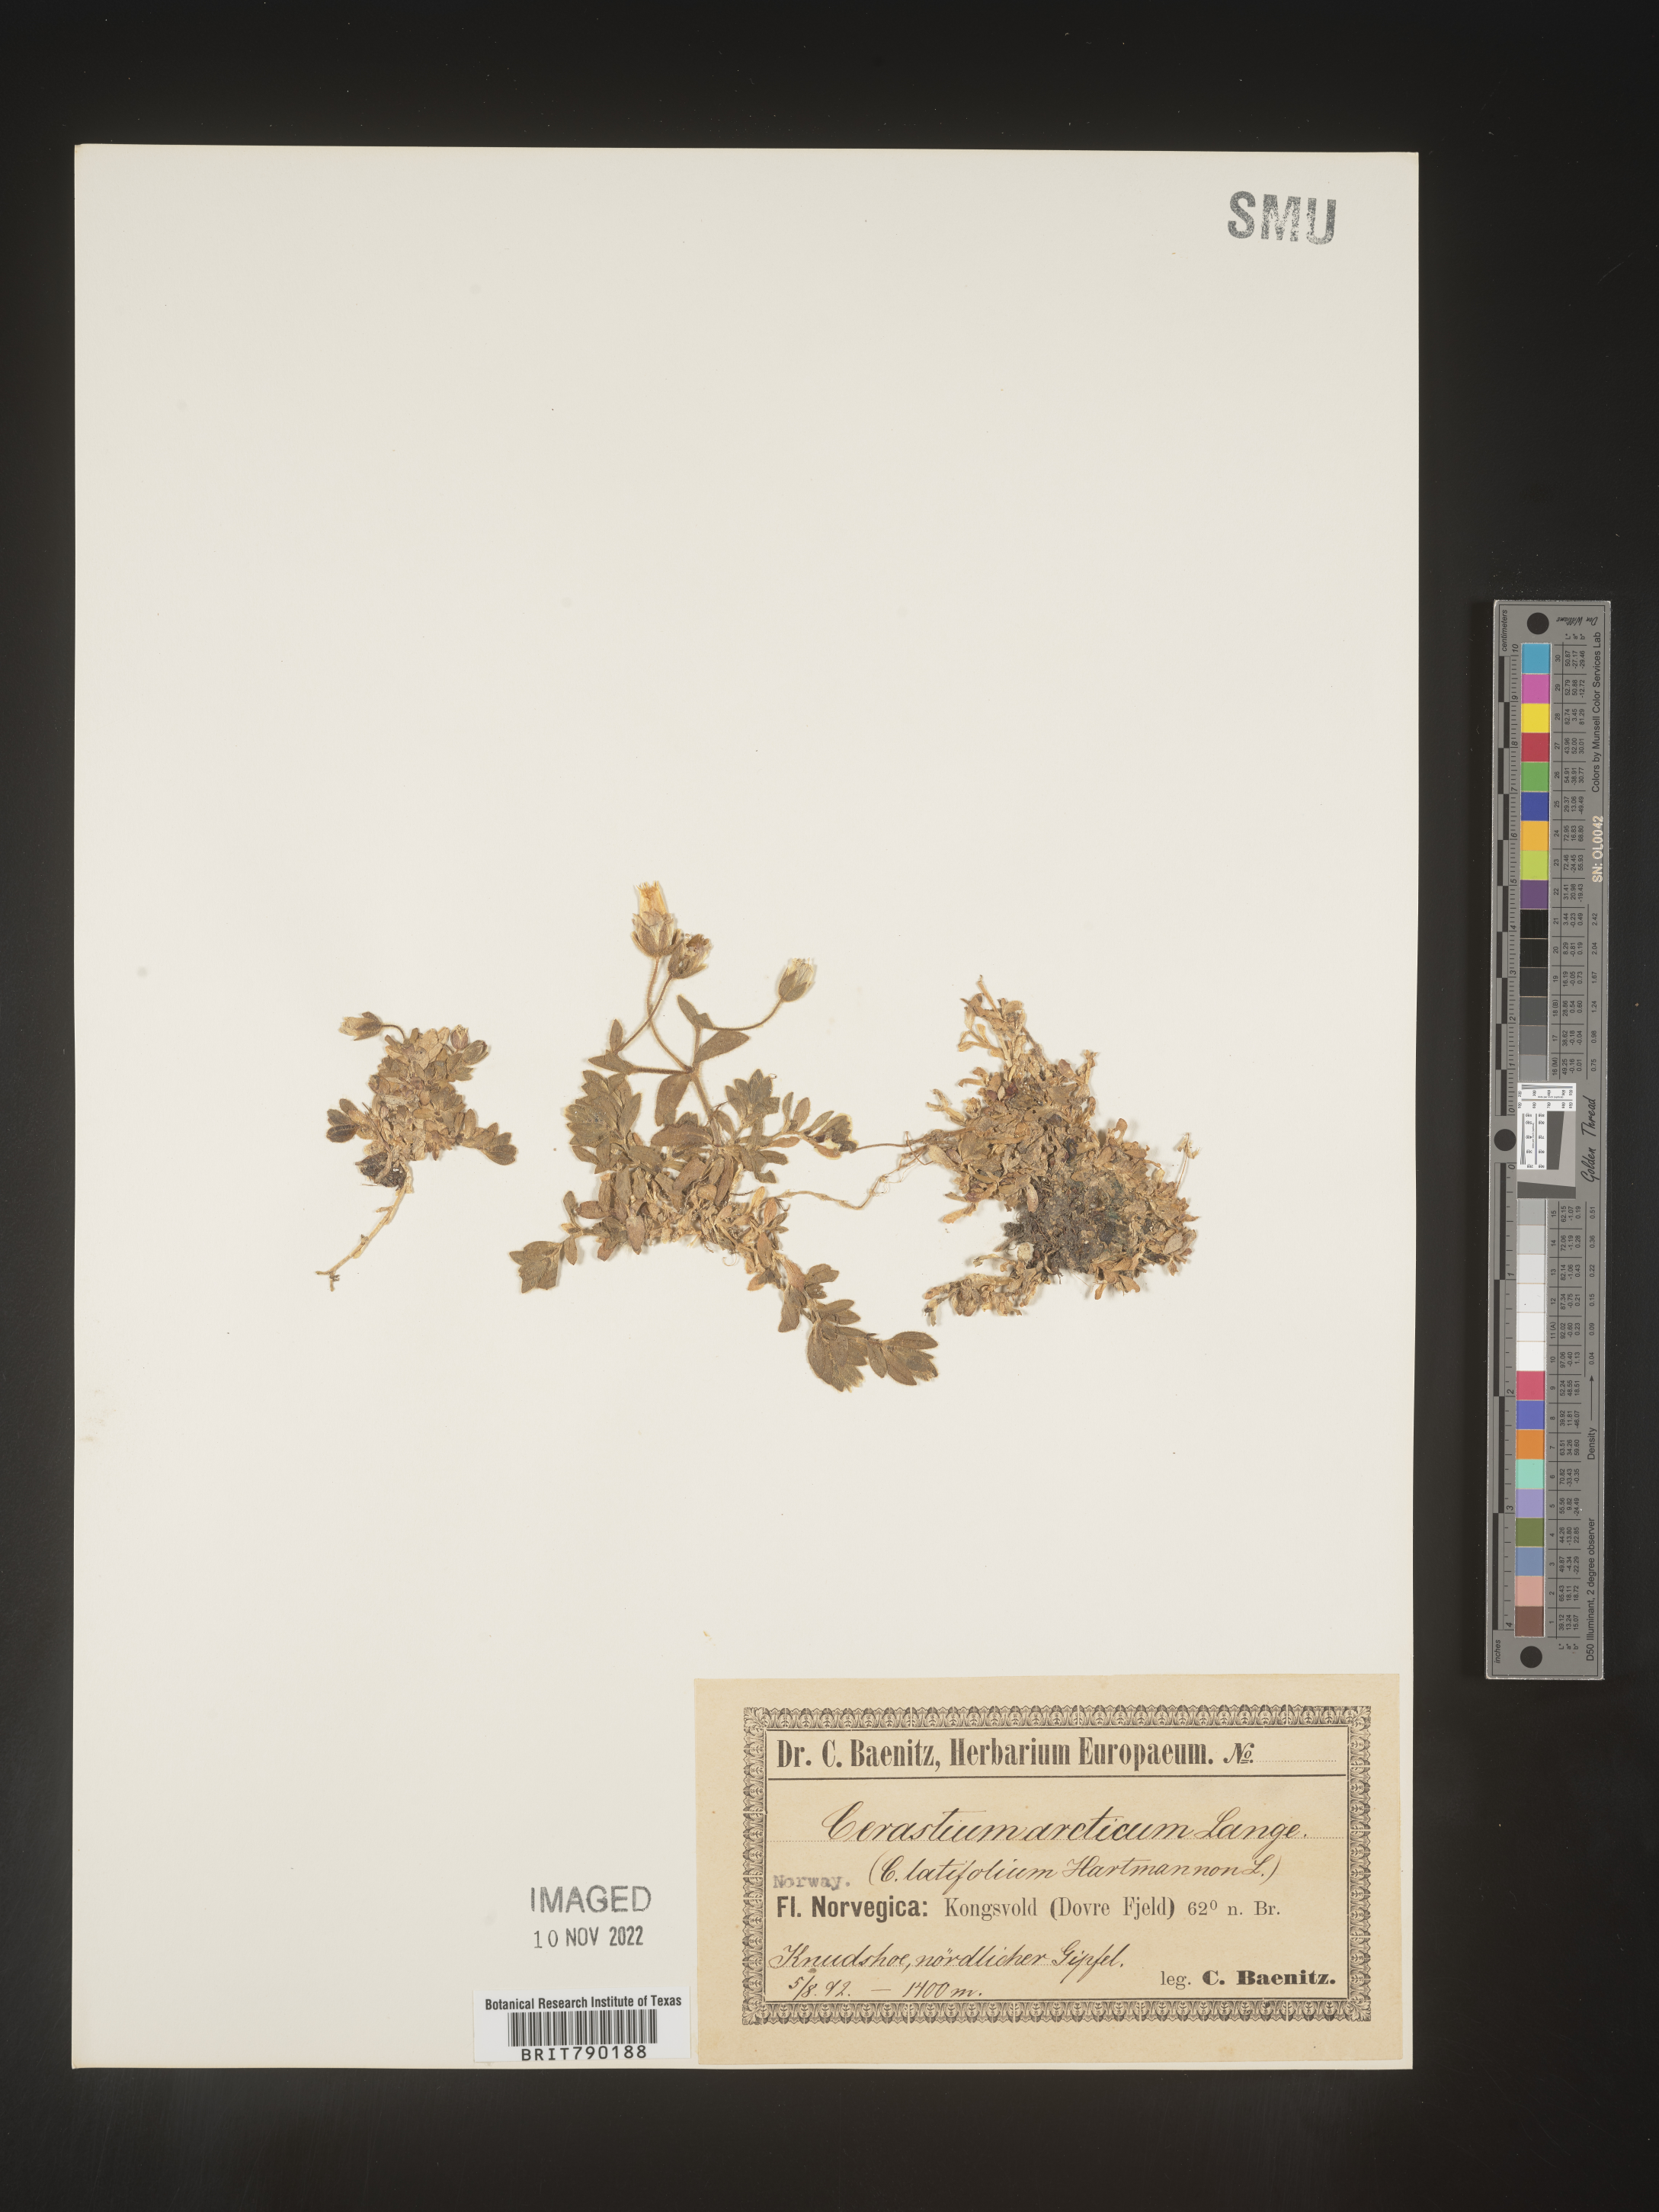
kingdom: Plantae
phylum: Tracheophyta
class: Magnoliopsida
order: Caryophyllales
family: Caryophyllaceae
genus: Cerastium
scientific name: Cerastium
